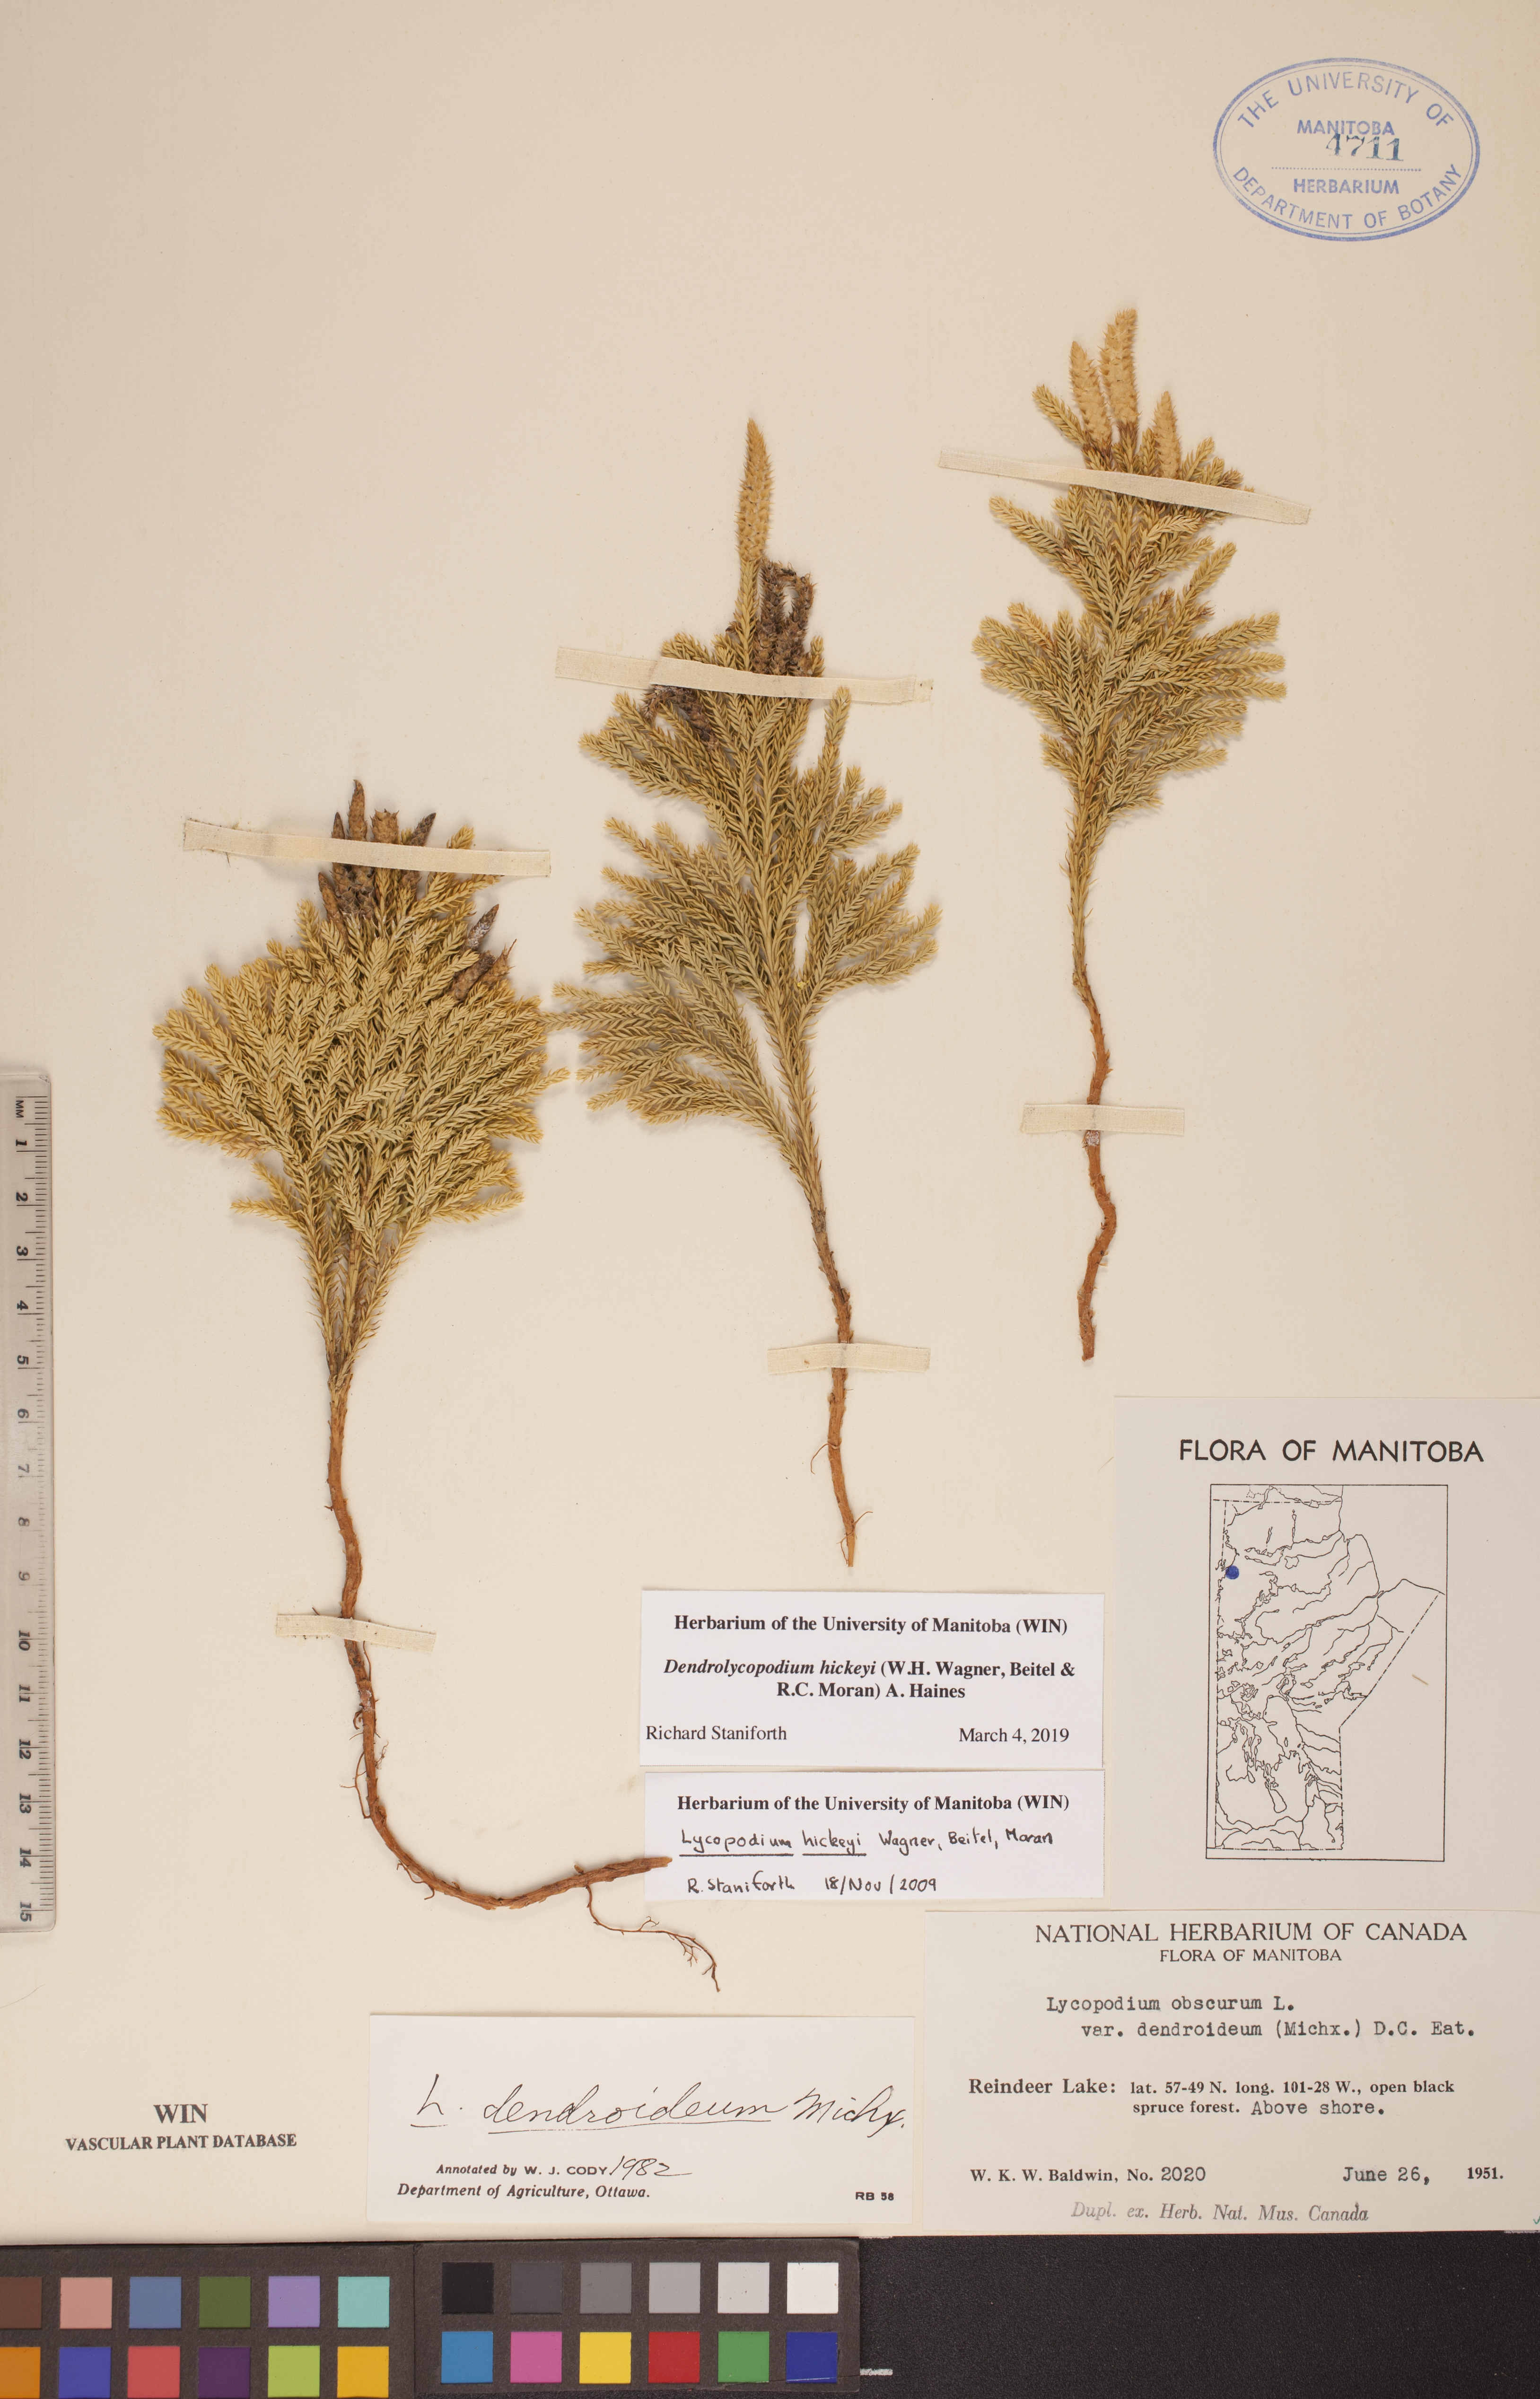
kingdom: Plantae
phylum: Tracheophyta
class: Lycopodiopsida
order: Lycopodiales
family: Lycopodiaceae
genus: Dendrolycopodium
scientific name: Dendrolycopodium hickeyi
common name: Hickey's clubmoss
